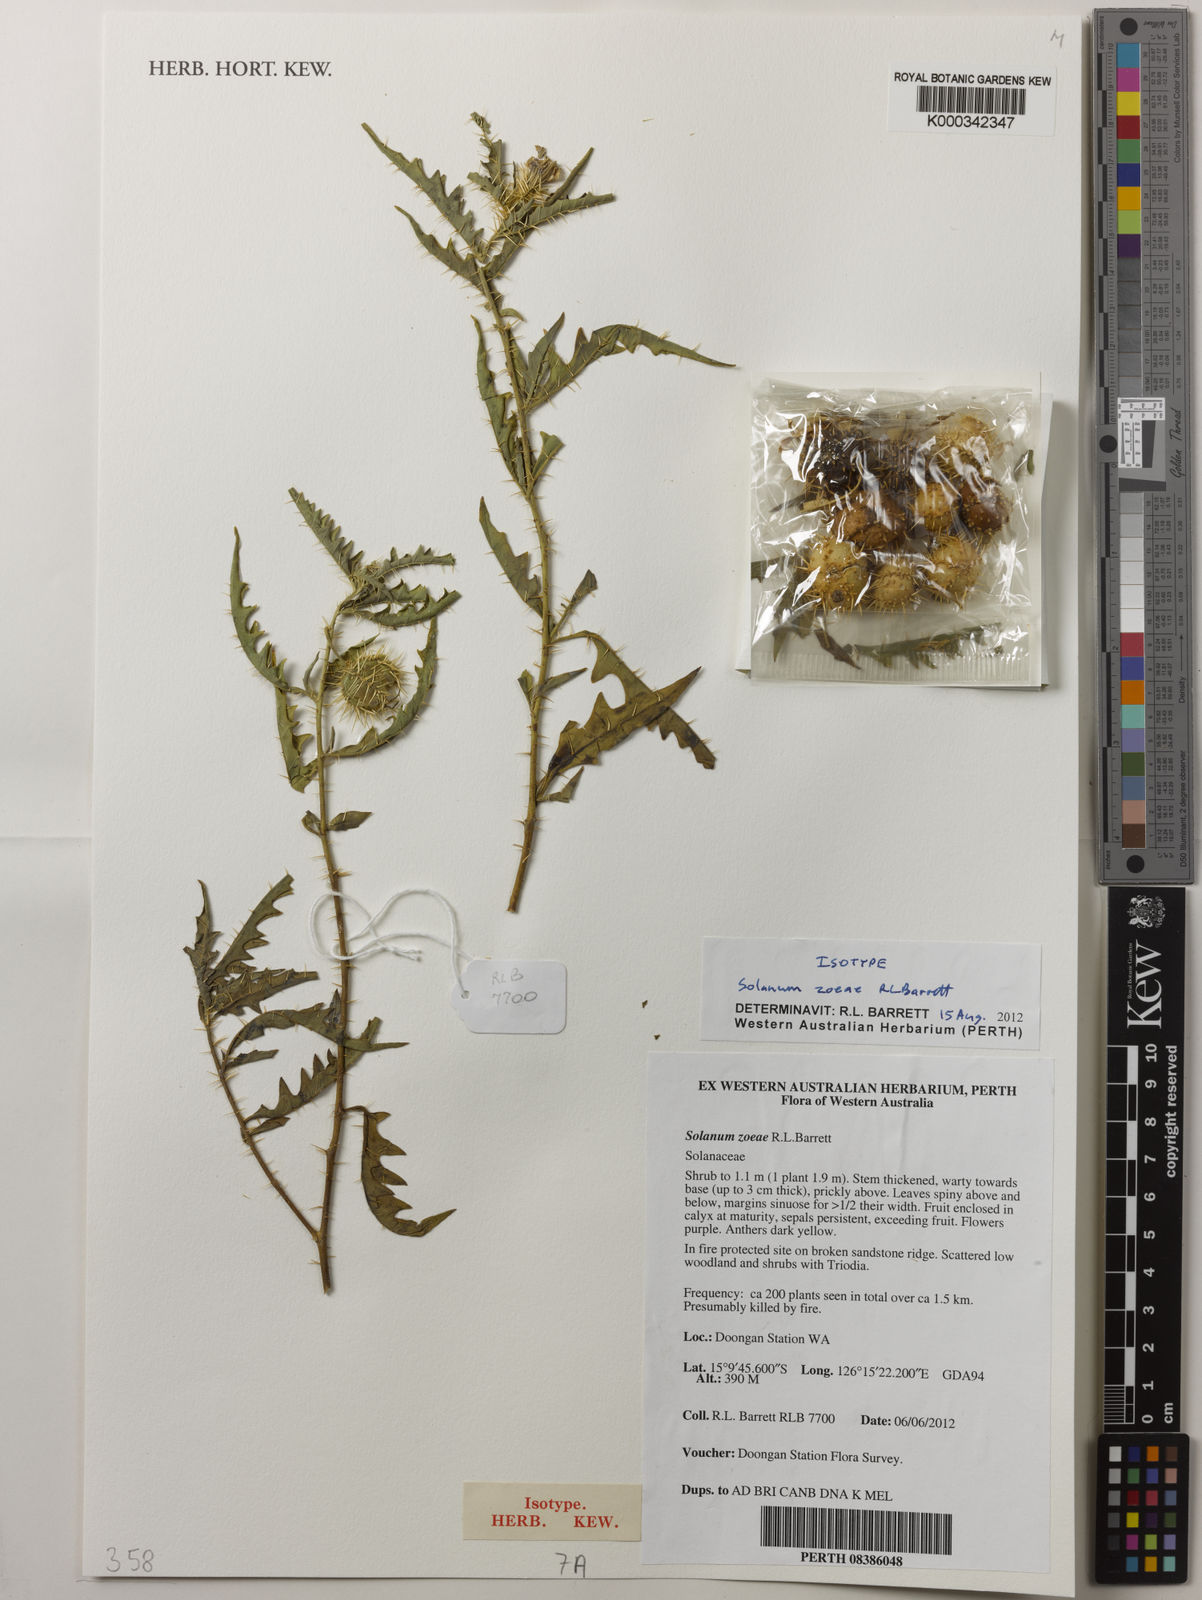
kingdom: Plantae
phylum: Tracheophyta
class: Magnoliopsida
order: Solanales
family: Solanaceae
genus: Solanum
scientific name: Solanum zoeae
